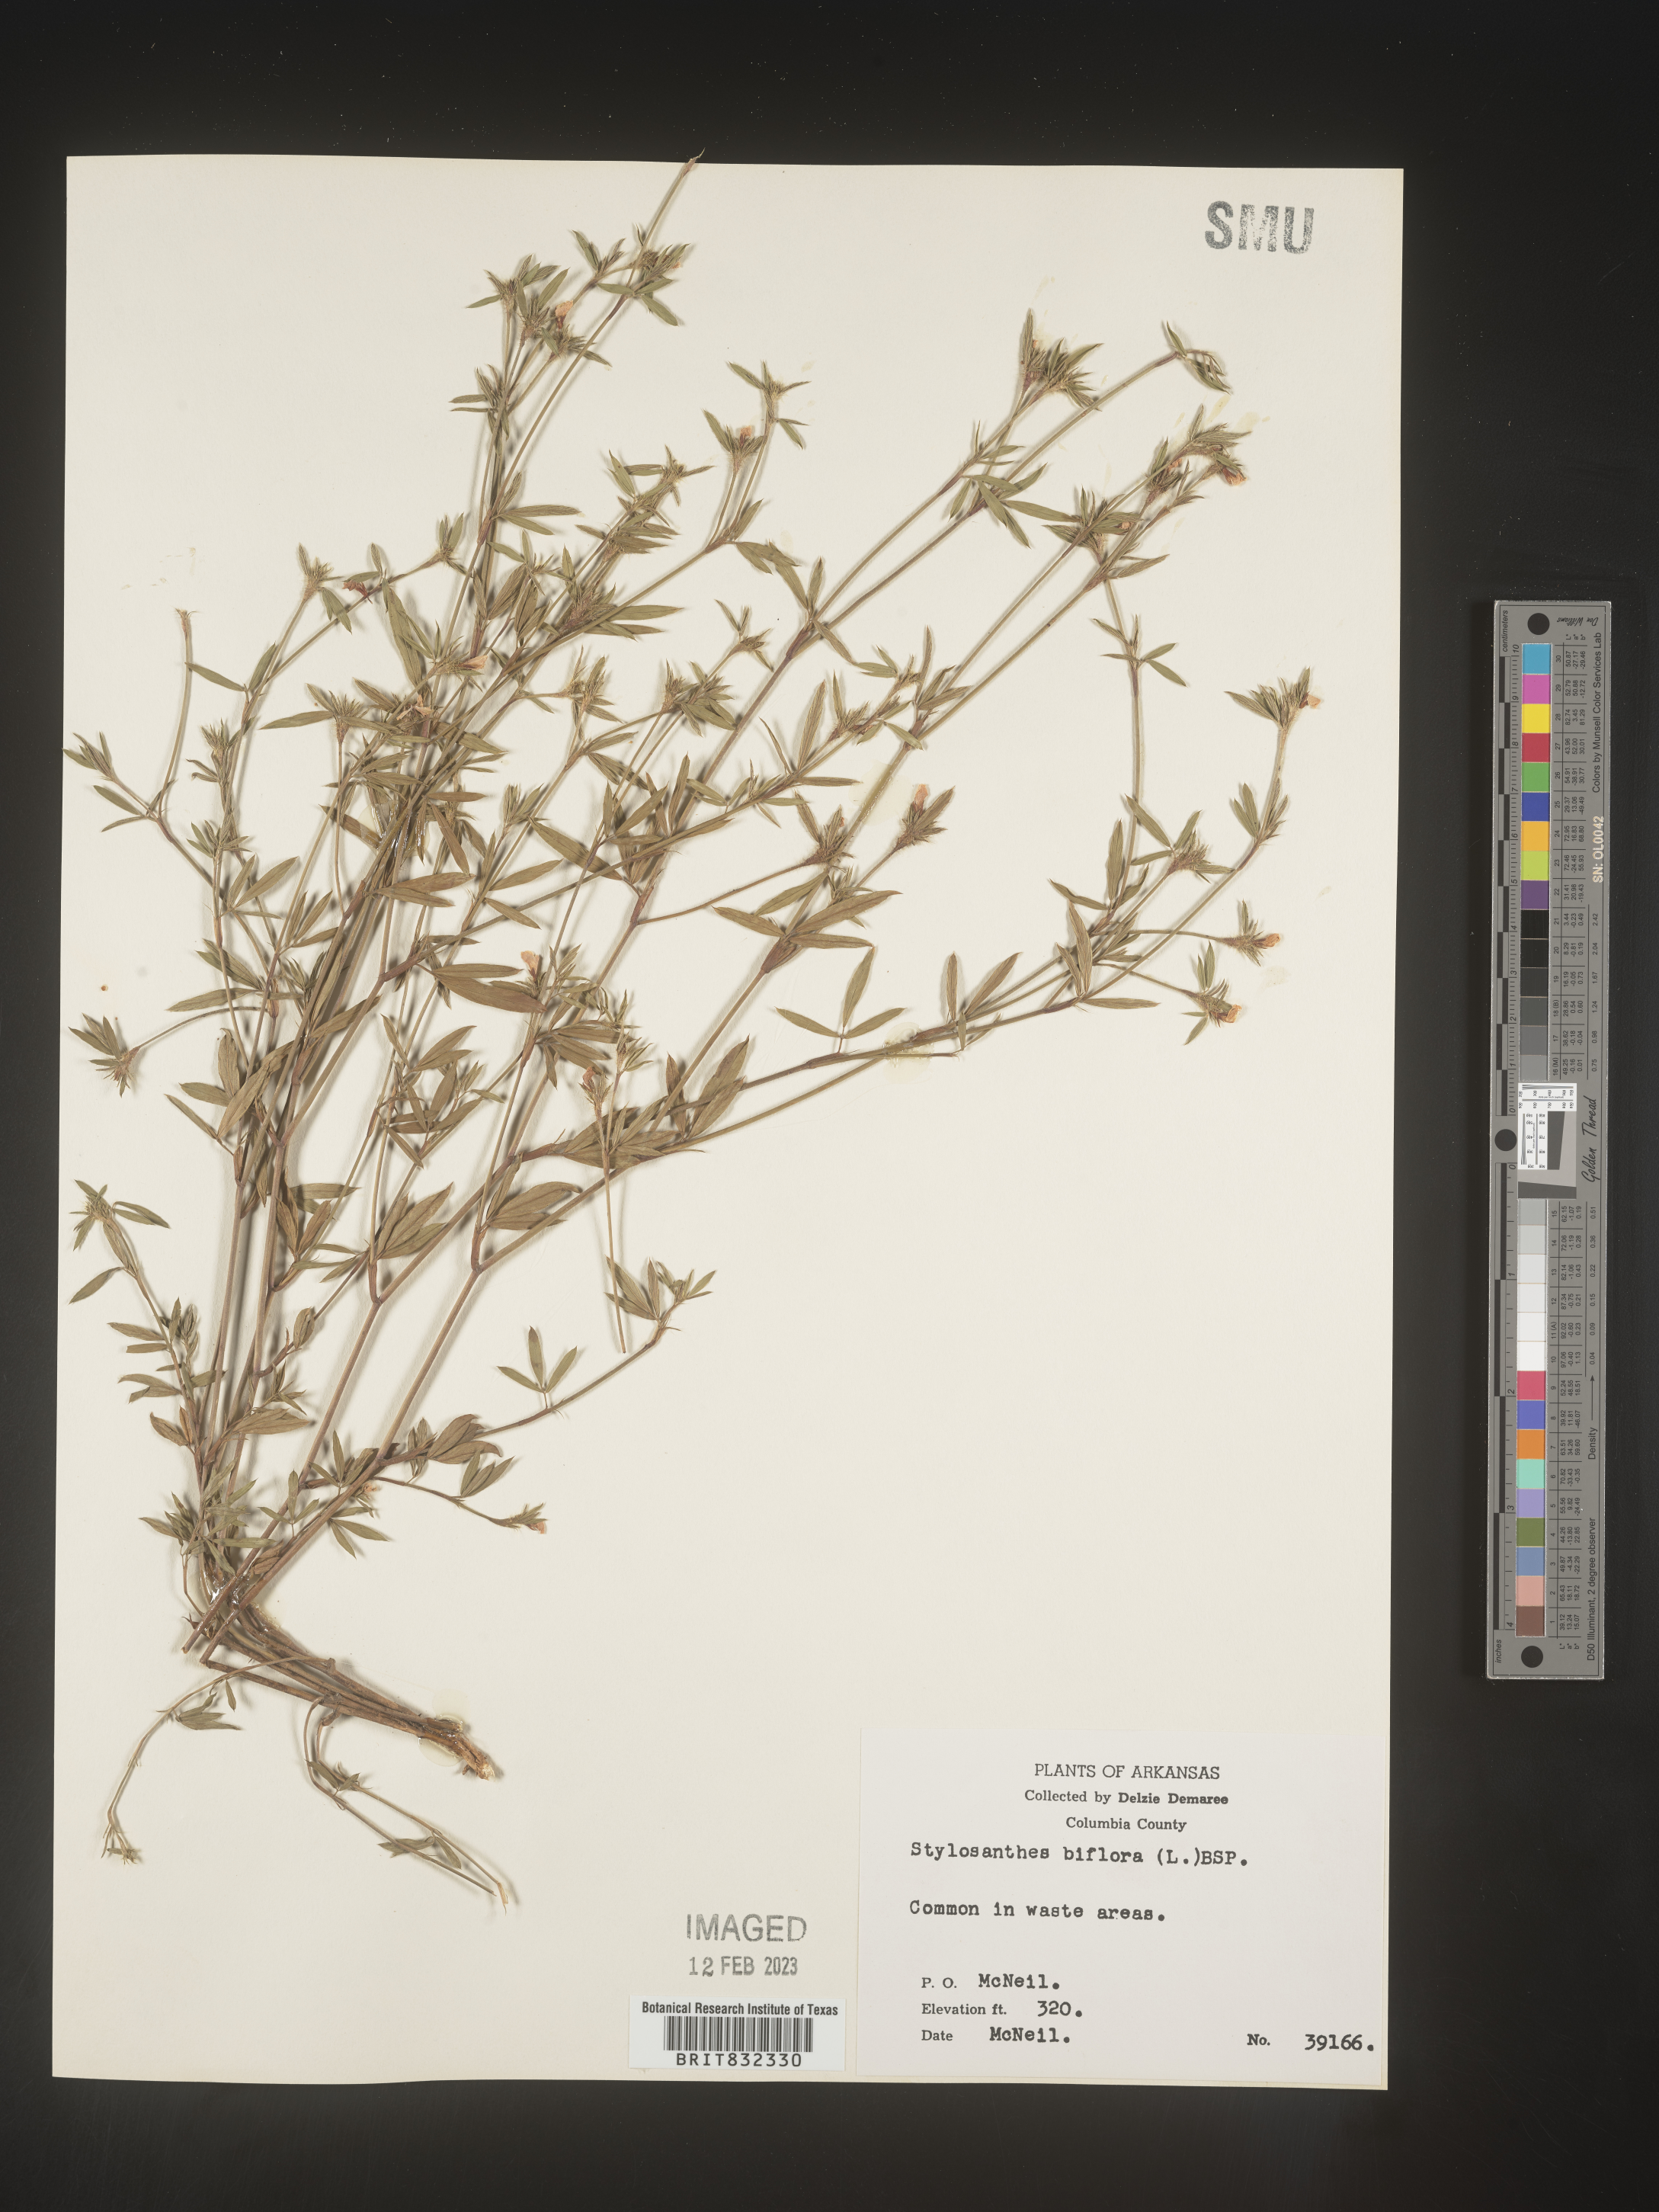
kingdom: Plantae
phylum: Tracheophyta
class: Magnoliopsida
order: Fabales
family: Fabaceae
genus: Stylosanthes
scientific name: Stylosanthes biflora
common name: Two-flower pencil-flower
